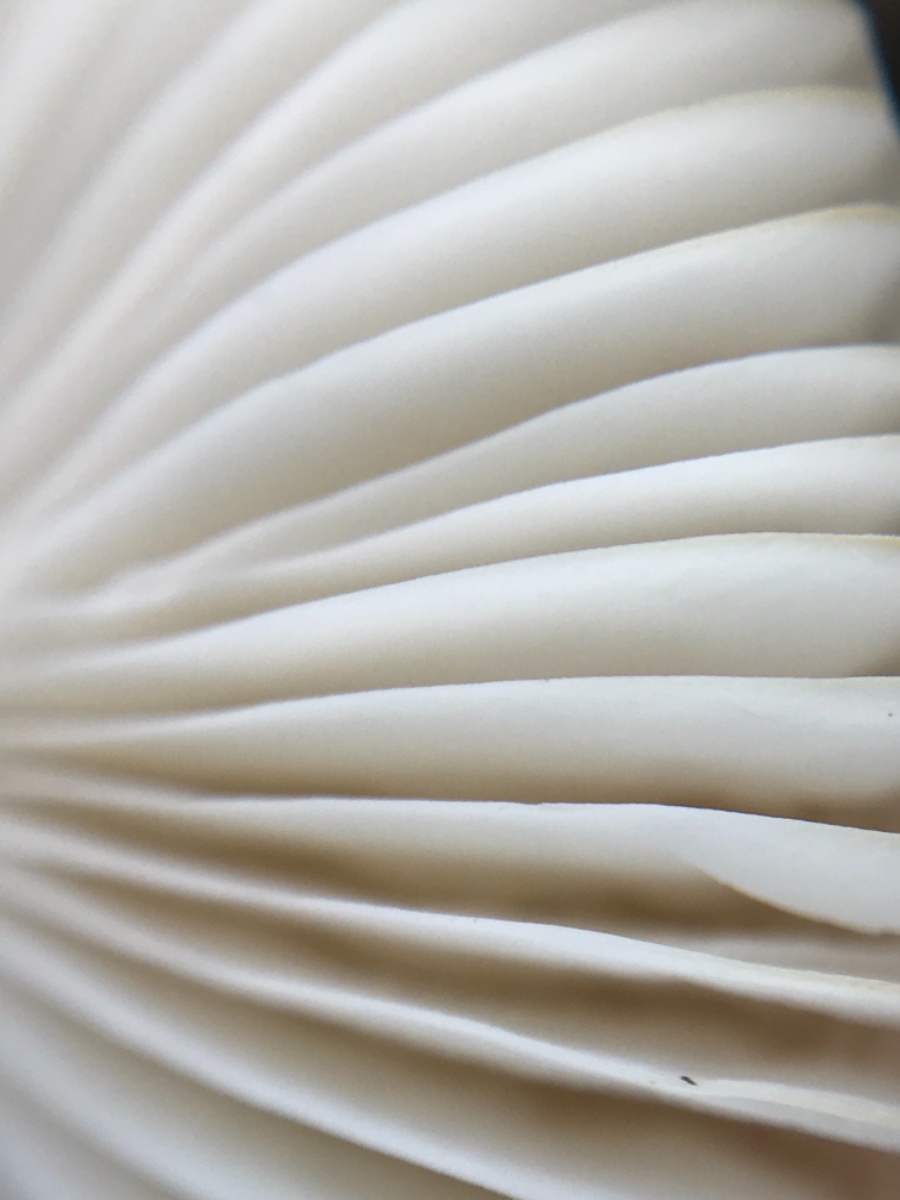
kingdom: Fungi
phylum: Basidiomycota
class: Agaricomycetes
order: Russulales
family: Russulaceae
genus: Russula
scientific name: Russula laccata
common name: klit-skørhat
